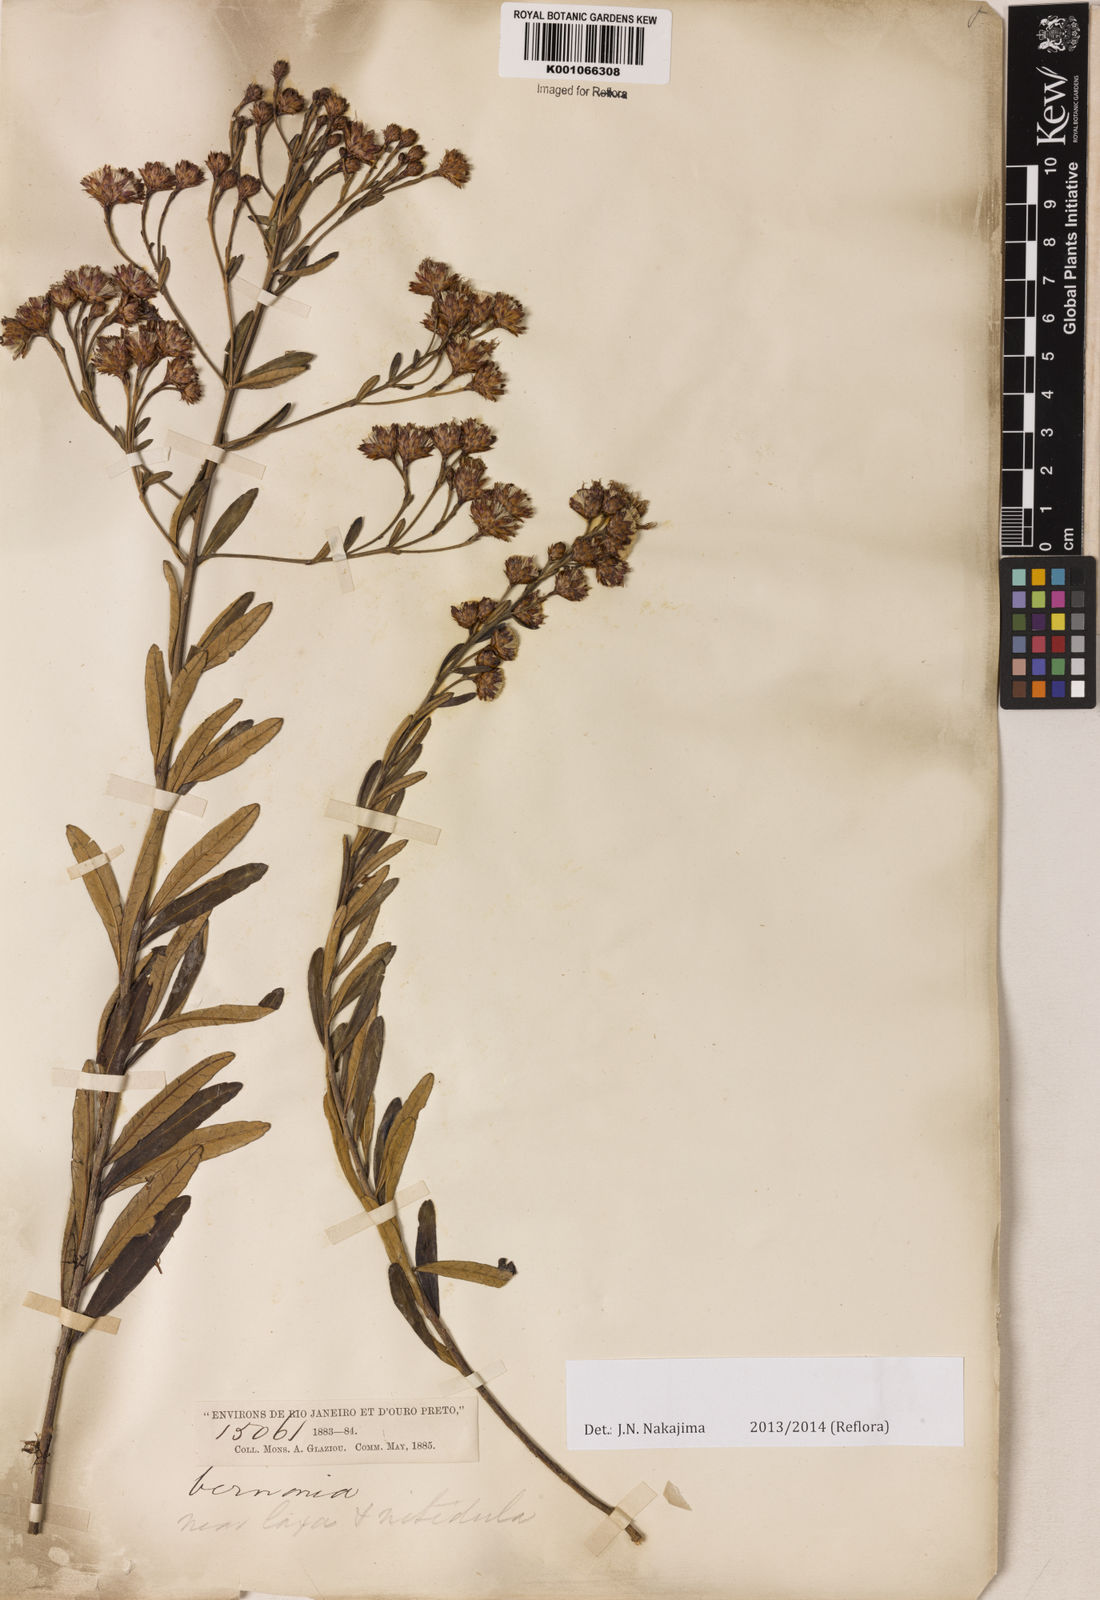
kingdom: Plantae
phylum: Tracheophyta
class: Magnoliopsida
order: Asterales
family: Asteraceae
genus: Vernonanthura
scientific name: Vernonanthura ferruginea
